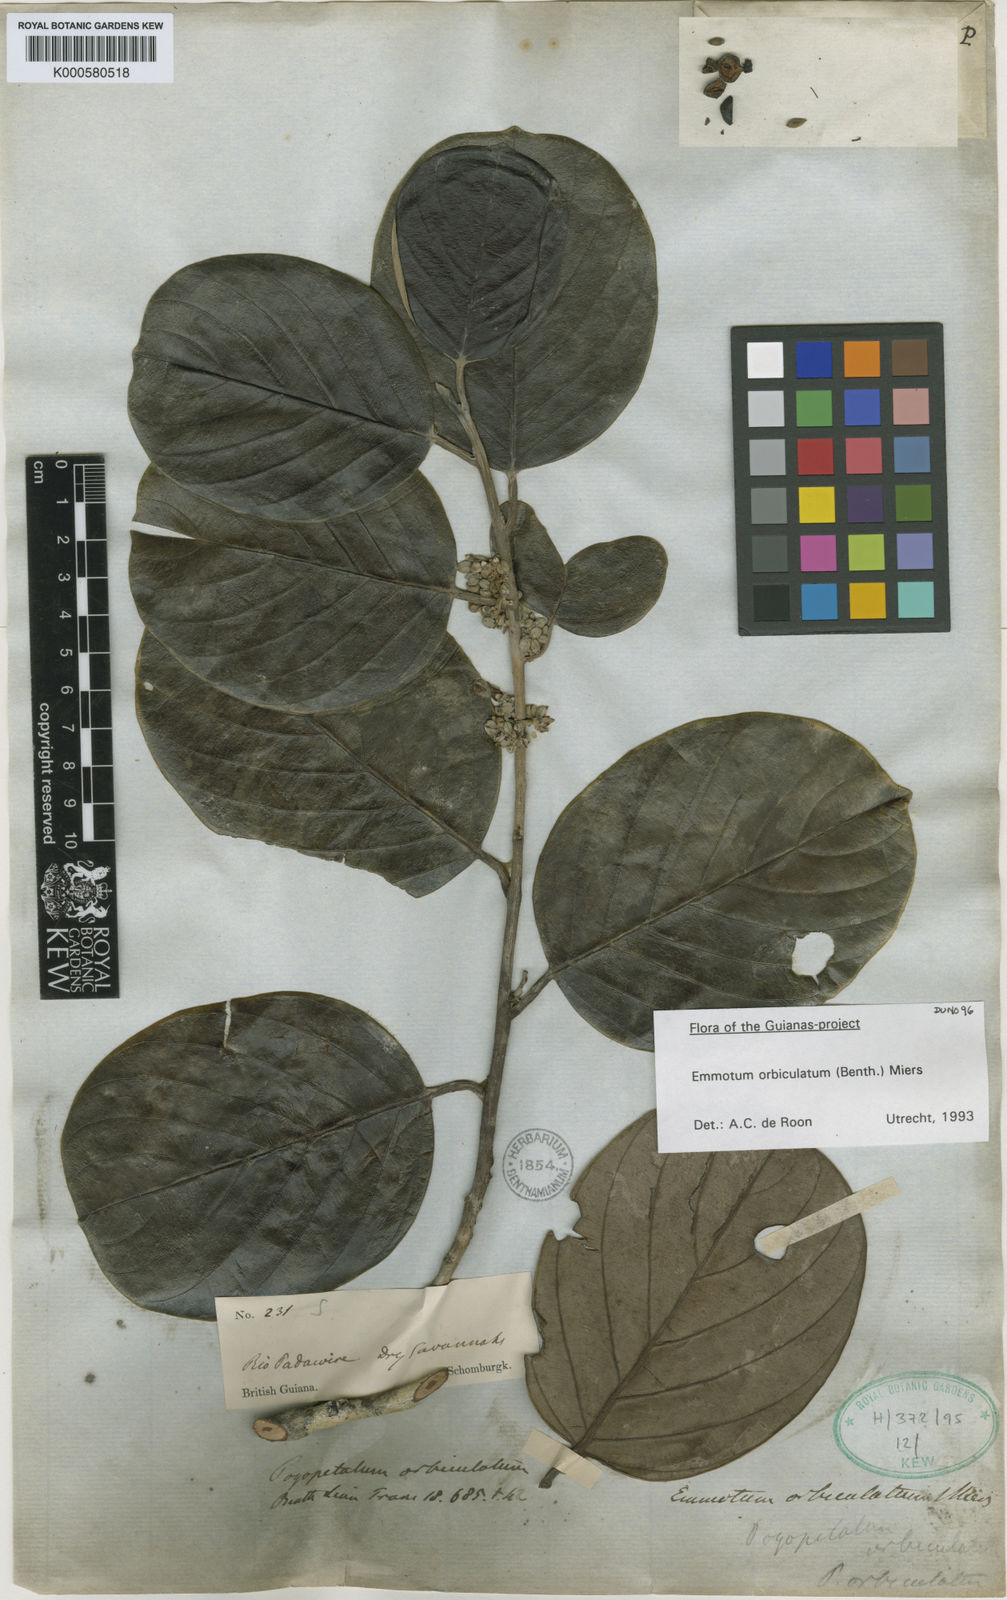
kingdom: Plantae
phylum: Tracheophyta
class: Magnoliopsida
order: Metteniusales
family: Metteniusaceae
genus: Emmotum
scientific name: Emmotum orbiculatum
